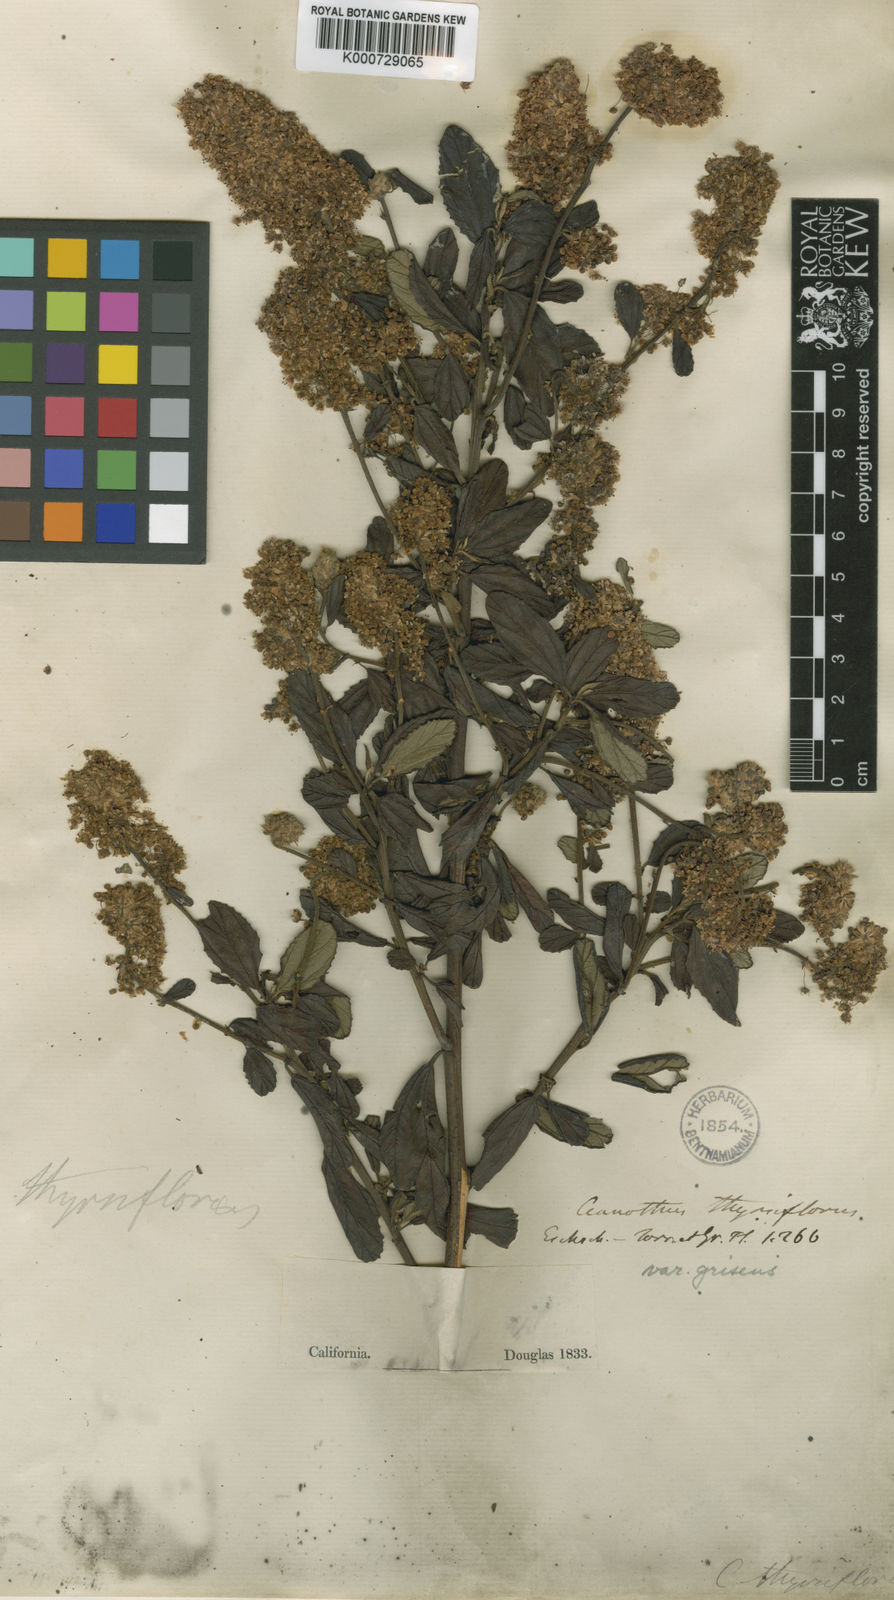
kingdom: Plantae
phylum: Tracheophyta
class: Magnoliopsida
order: Rosales
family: Rhamnaceae
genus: Ceanothus
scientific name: Ceanothus griseus
